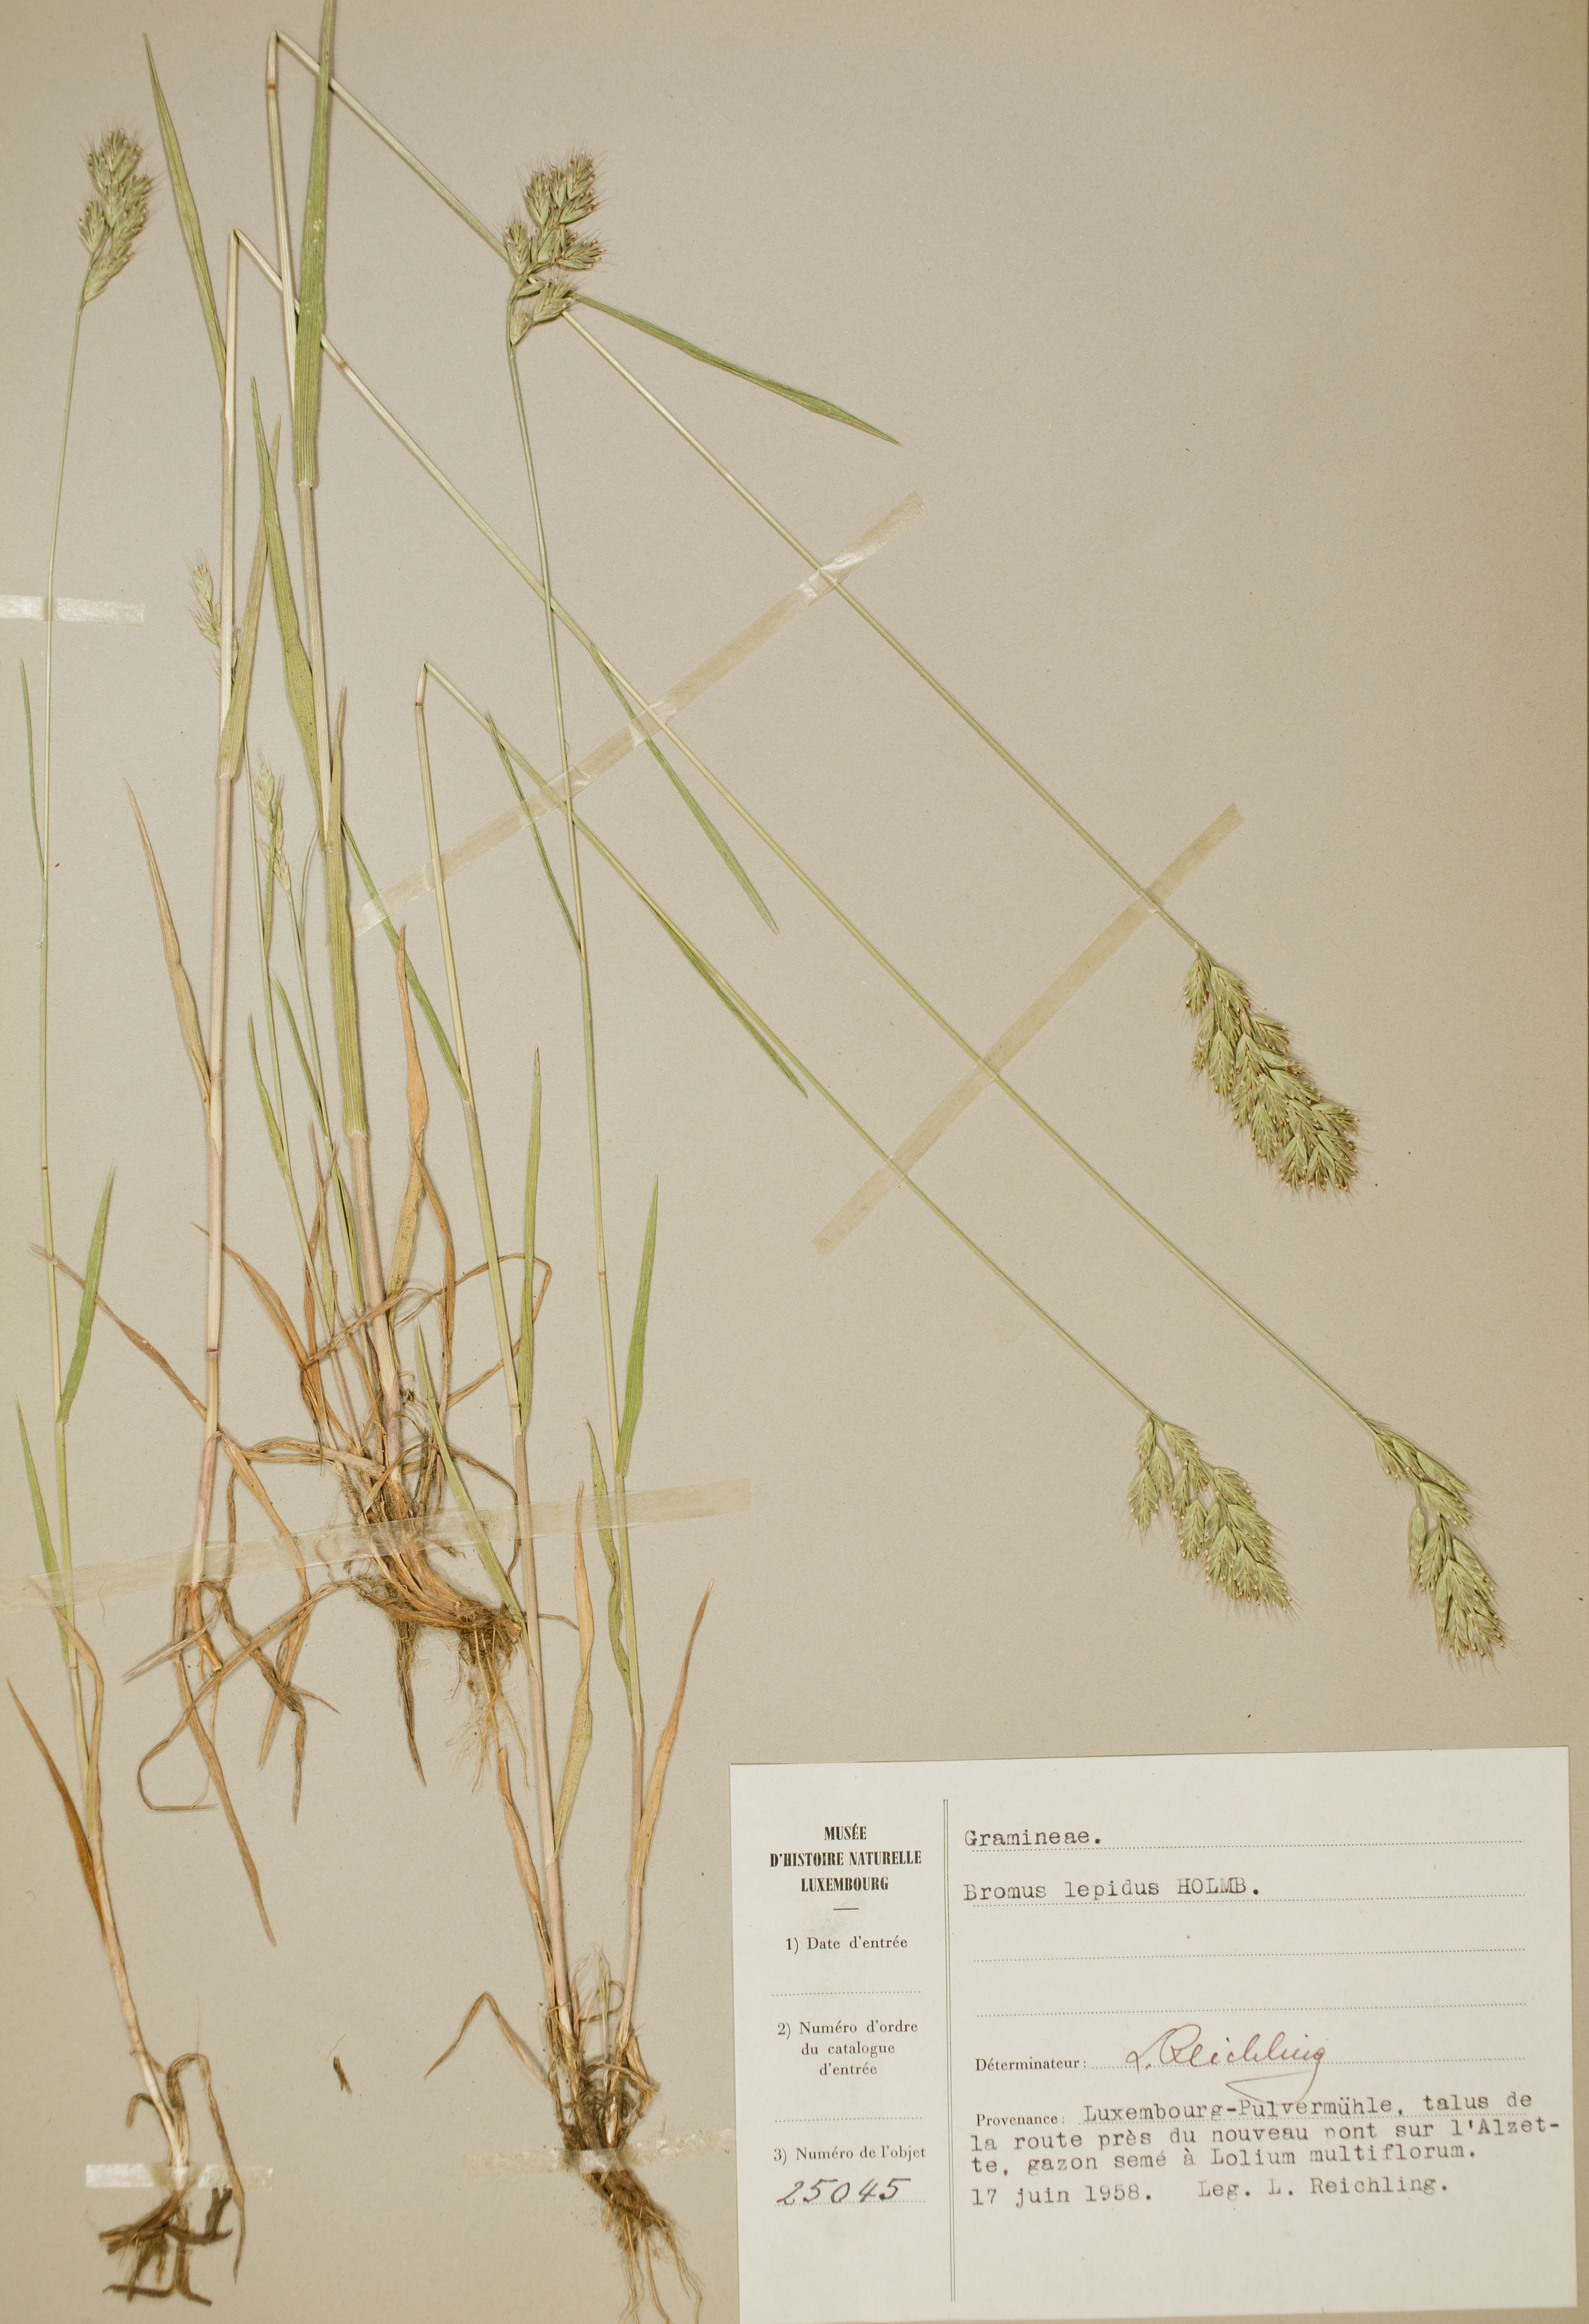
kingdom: Plantae
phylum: Tracheophyta
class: Liliopsida
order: Poales
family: Poaceae
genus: Bromus
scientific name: Bromus lepidus
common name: Slender soft-brome
